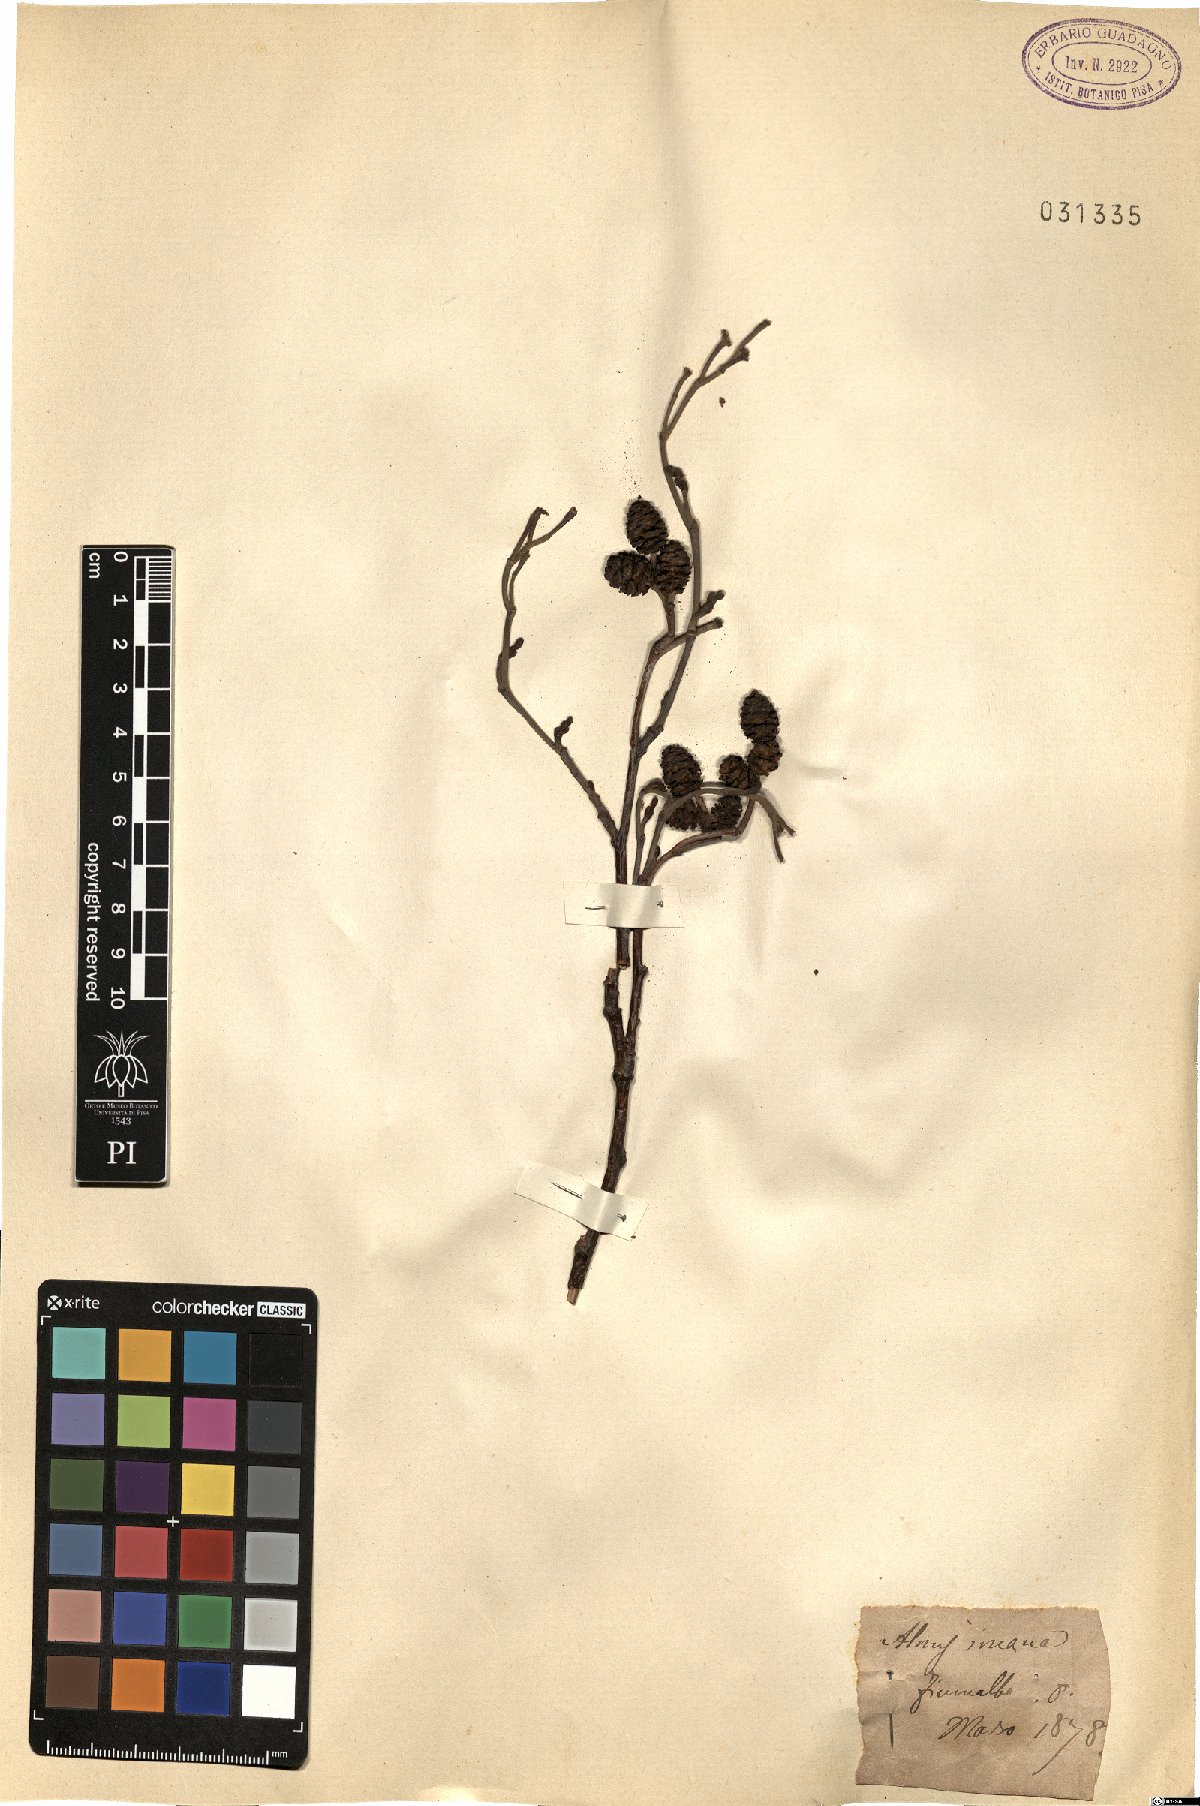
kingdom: Plantae
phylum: Tracheophyta
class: Magnoliopsida
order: Fagales
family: Betulaceae
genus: Alnus
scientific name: Alnus incana
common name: Grey alder
